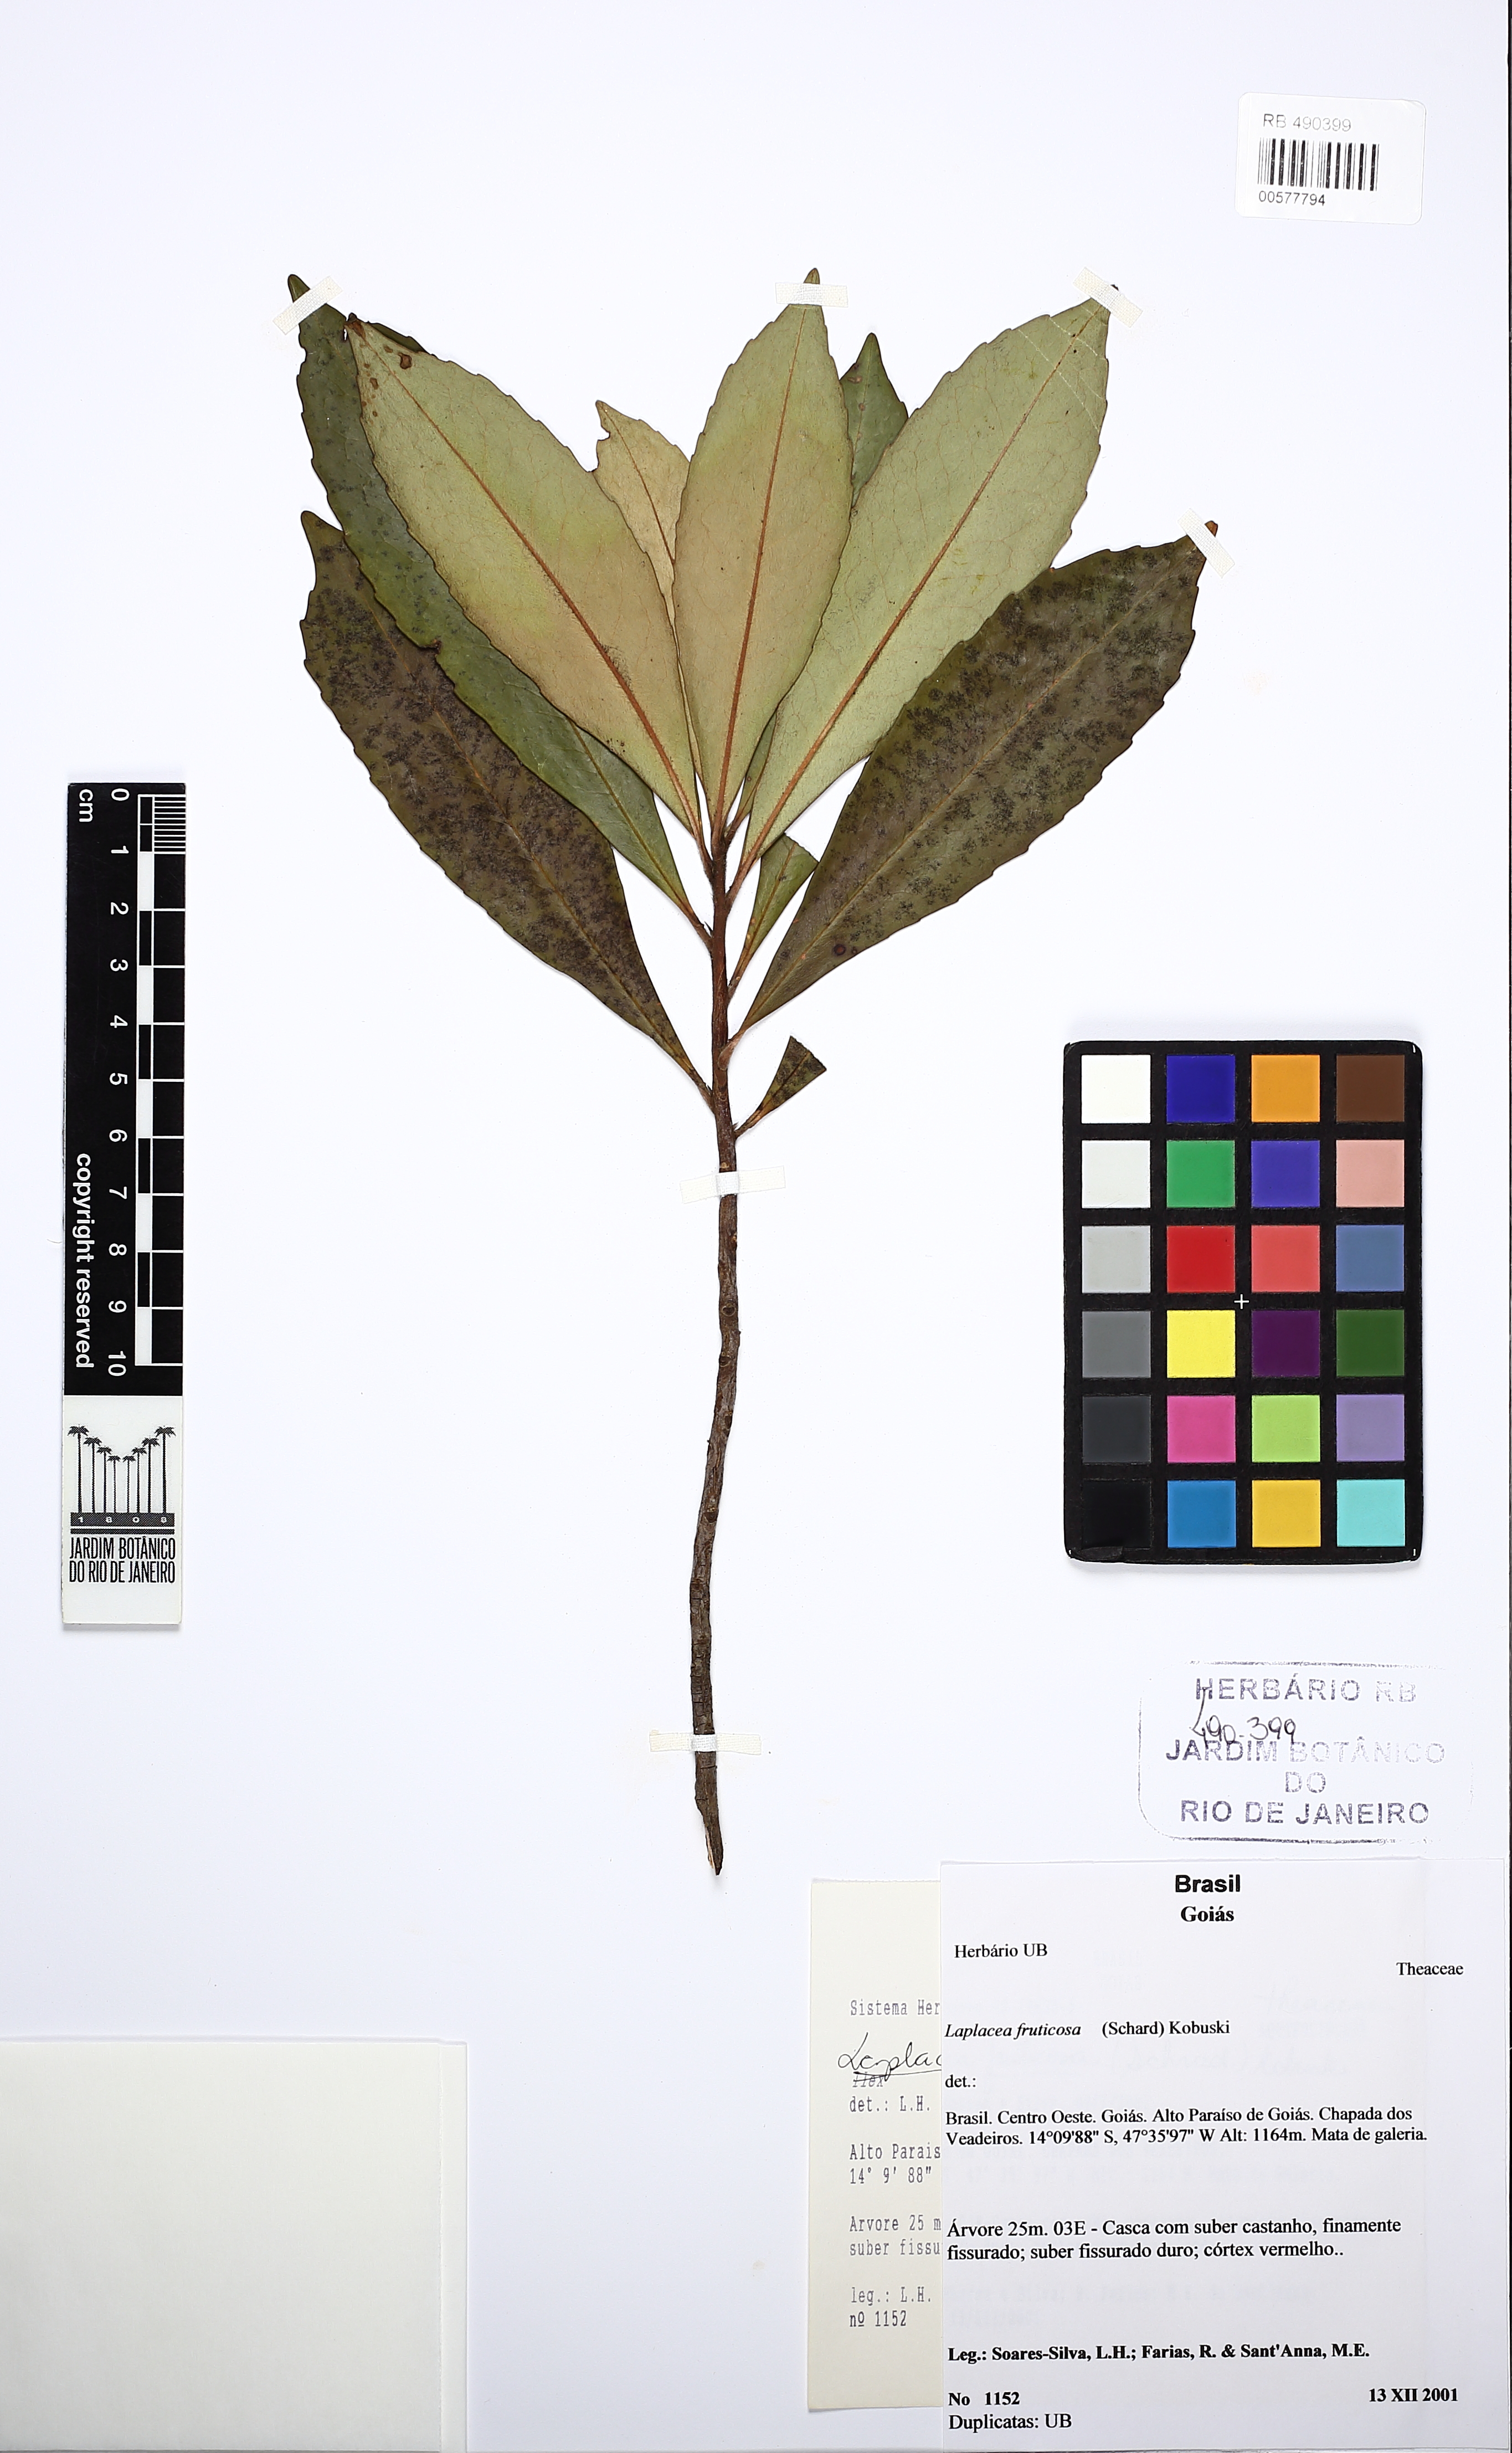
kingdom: Plantae
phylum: Tracheophyta
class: Magnoliopsida
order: Ericales
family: Theaceae
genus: Gordonia
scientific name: Gordonia fruticosa
